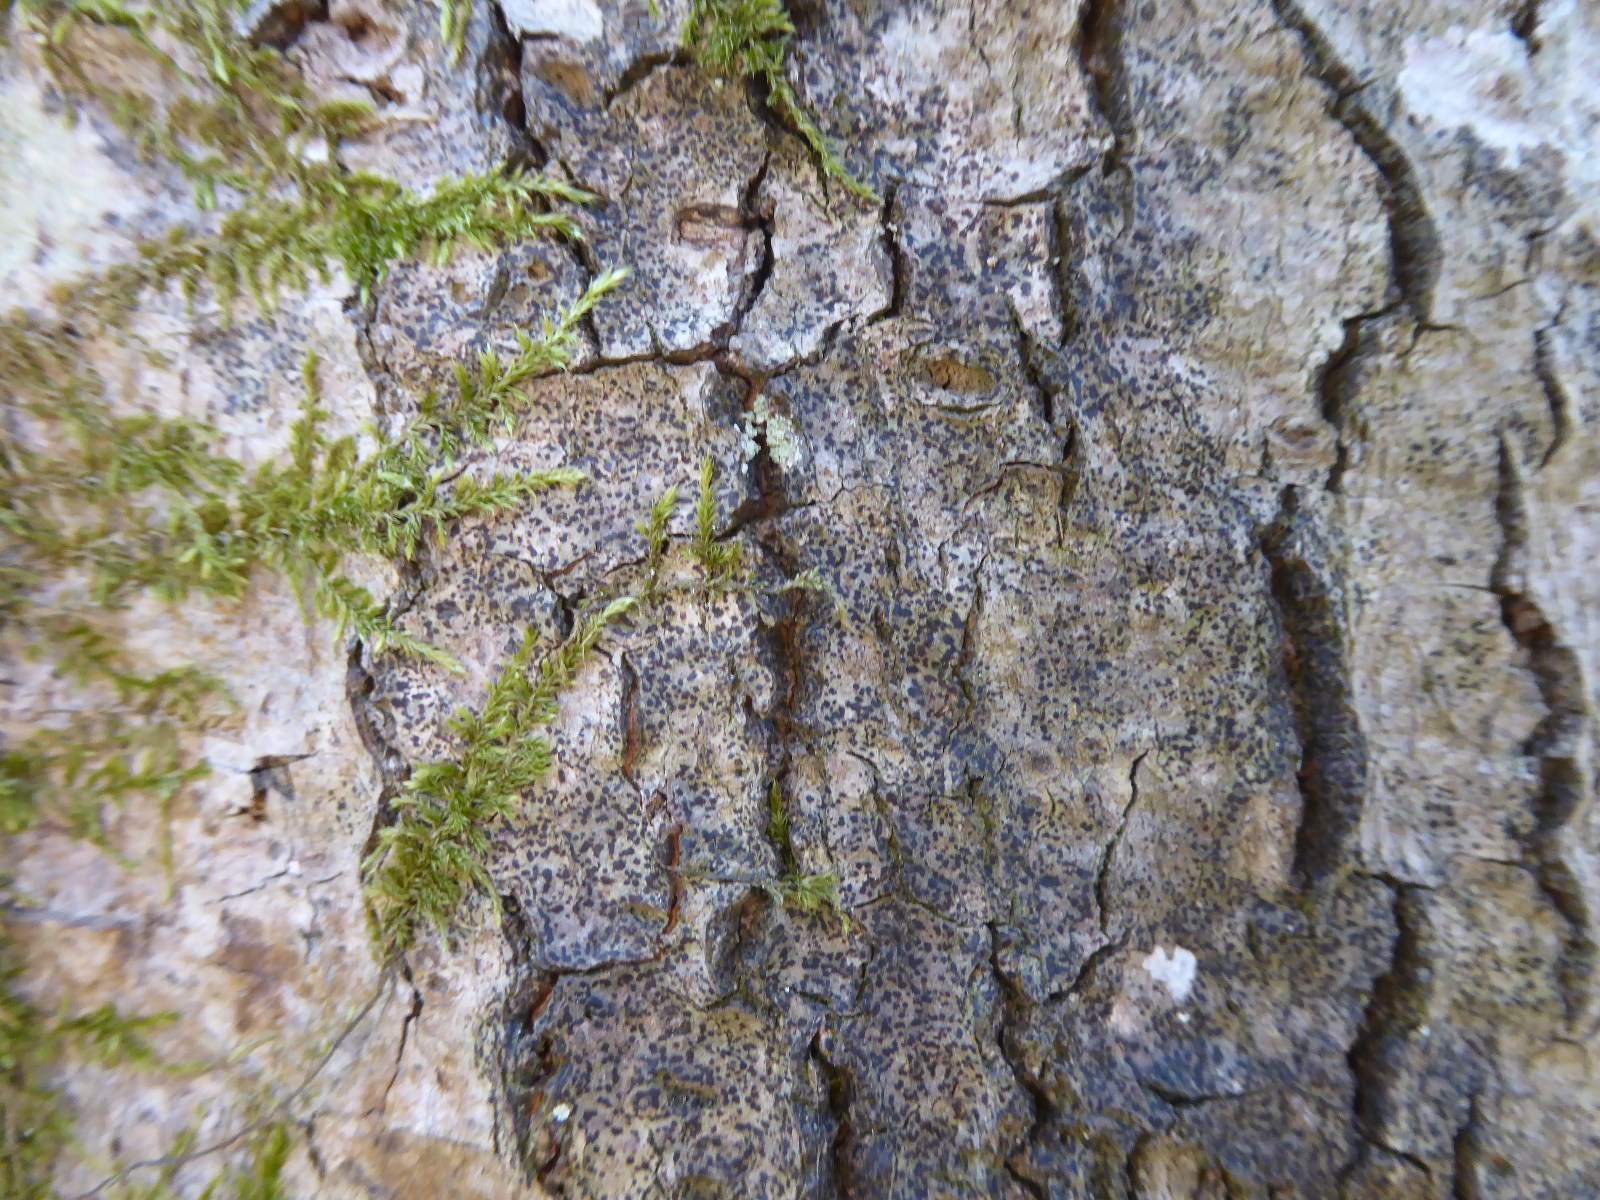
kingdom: Fungi
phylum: Ascomycota
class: Arthoniomycetes
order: Arthoniales
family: Arthoniaceae
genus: Diarthonis
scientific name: Diarthonis spadicea
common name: skygge-pletlav
